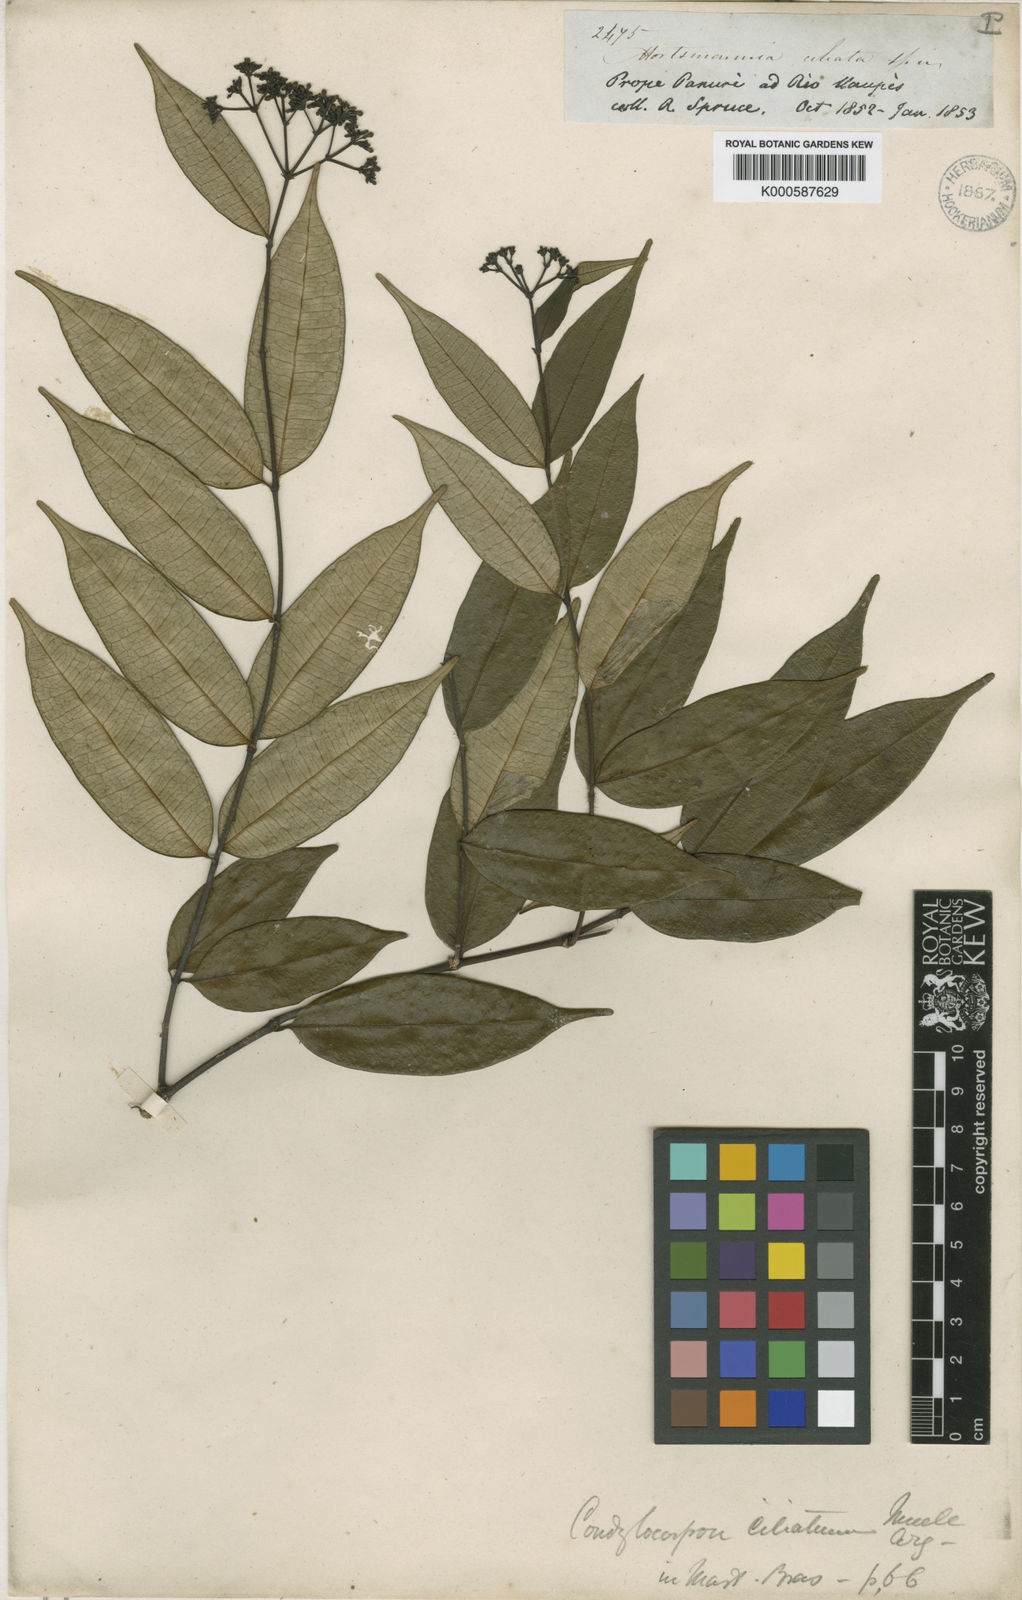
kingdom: Plantae
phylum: Tracheophyta
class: Magnoliopsida
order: Gentianales
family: Apocynaceae
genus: Condylocarpon
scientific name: Condylocarpon
